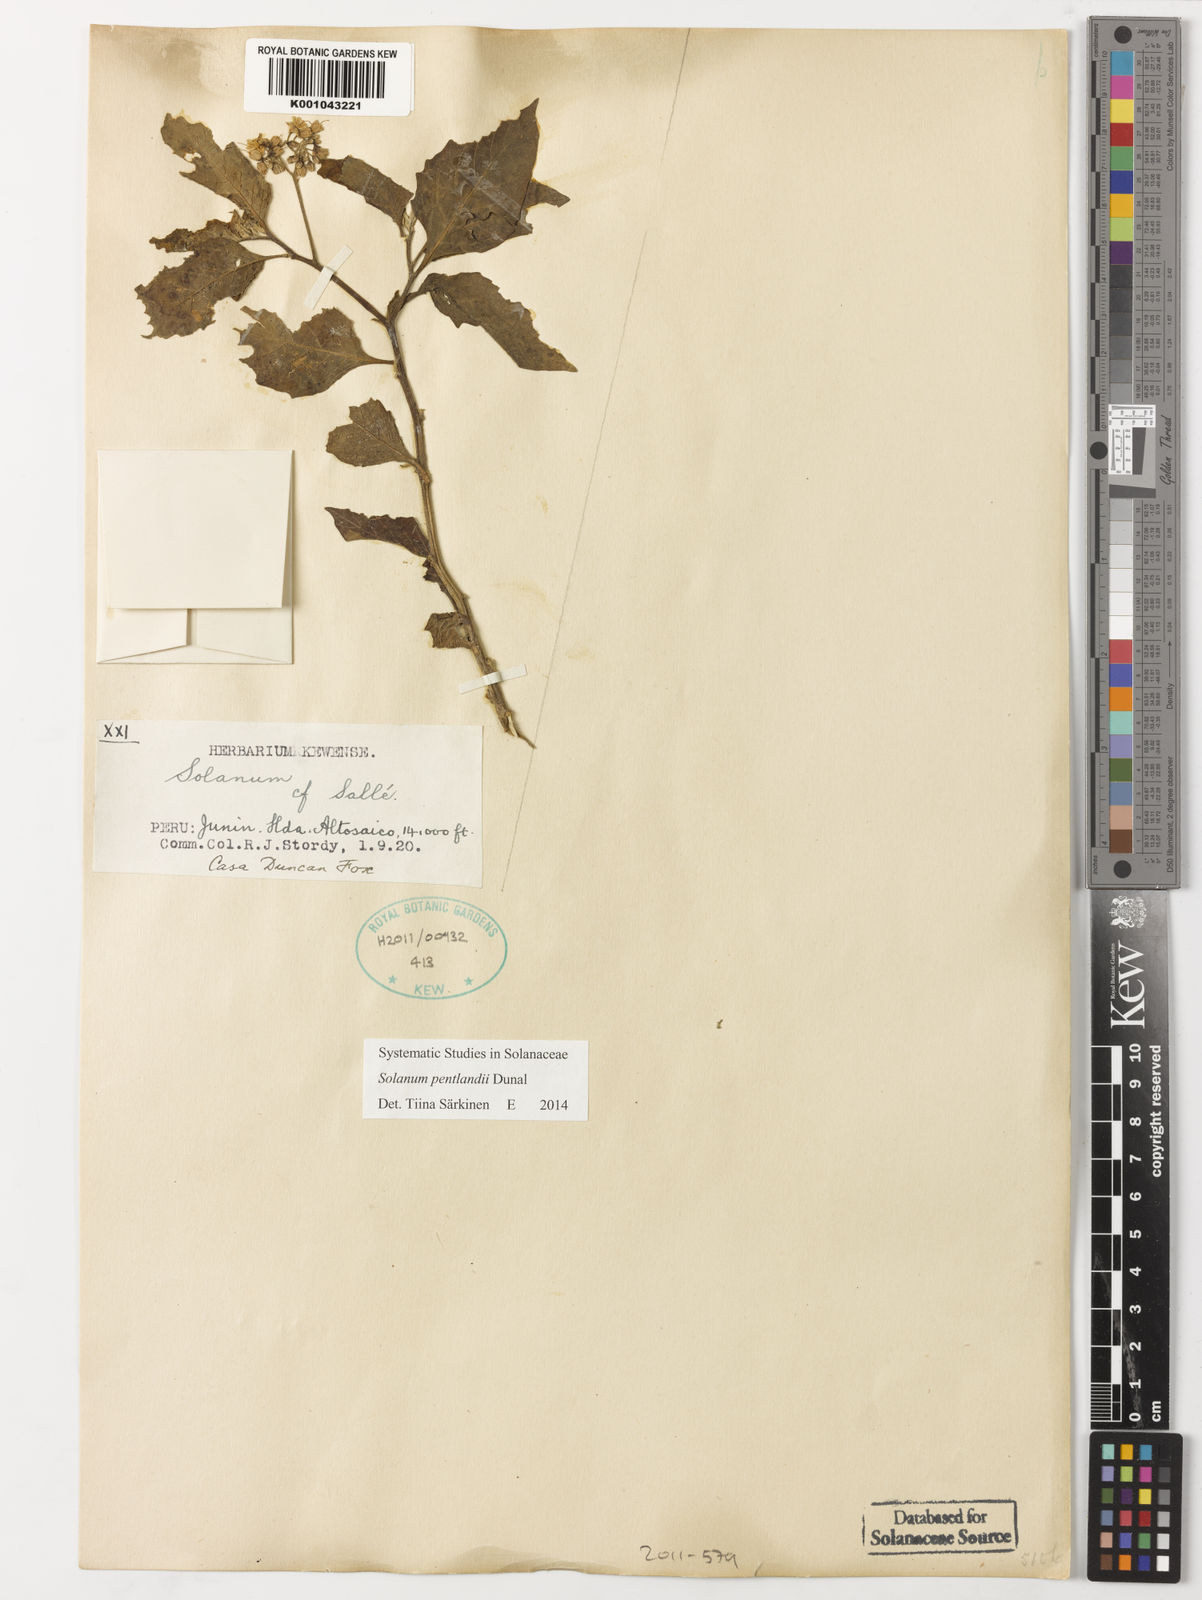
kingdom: Plantae
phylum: Tracheophyta
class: Magnoliopsida
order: Solanales
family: Solanaceae
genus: Solanum
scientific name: Solanum pentlandii
